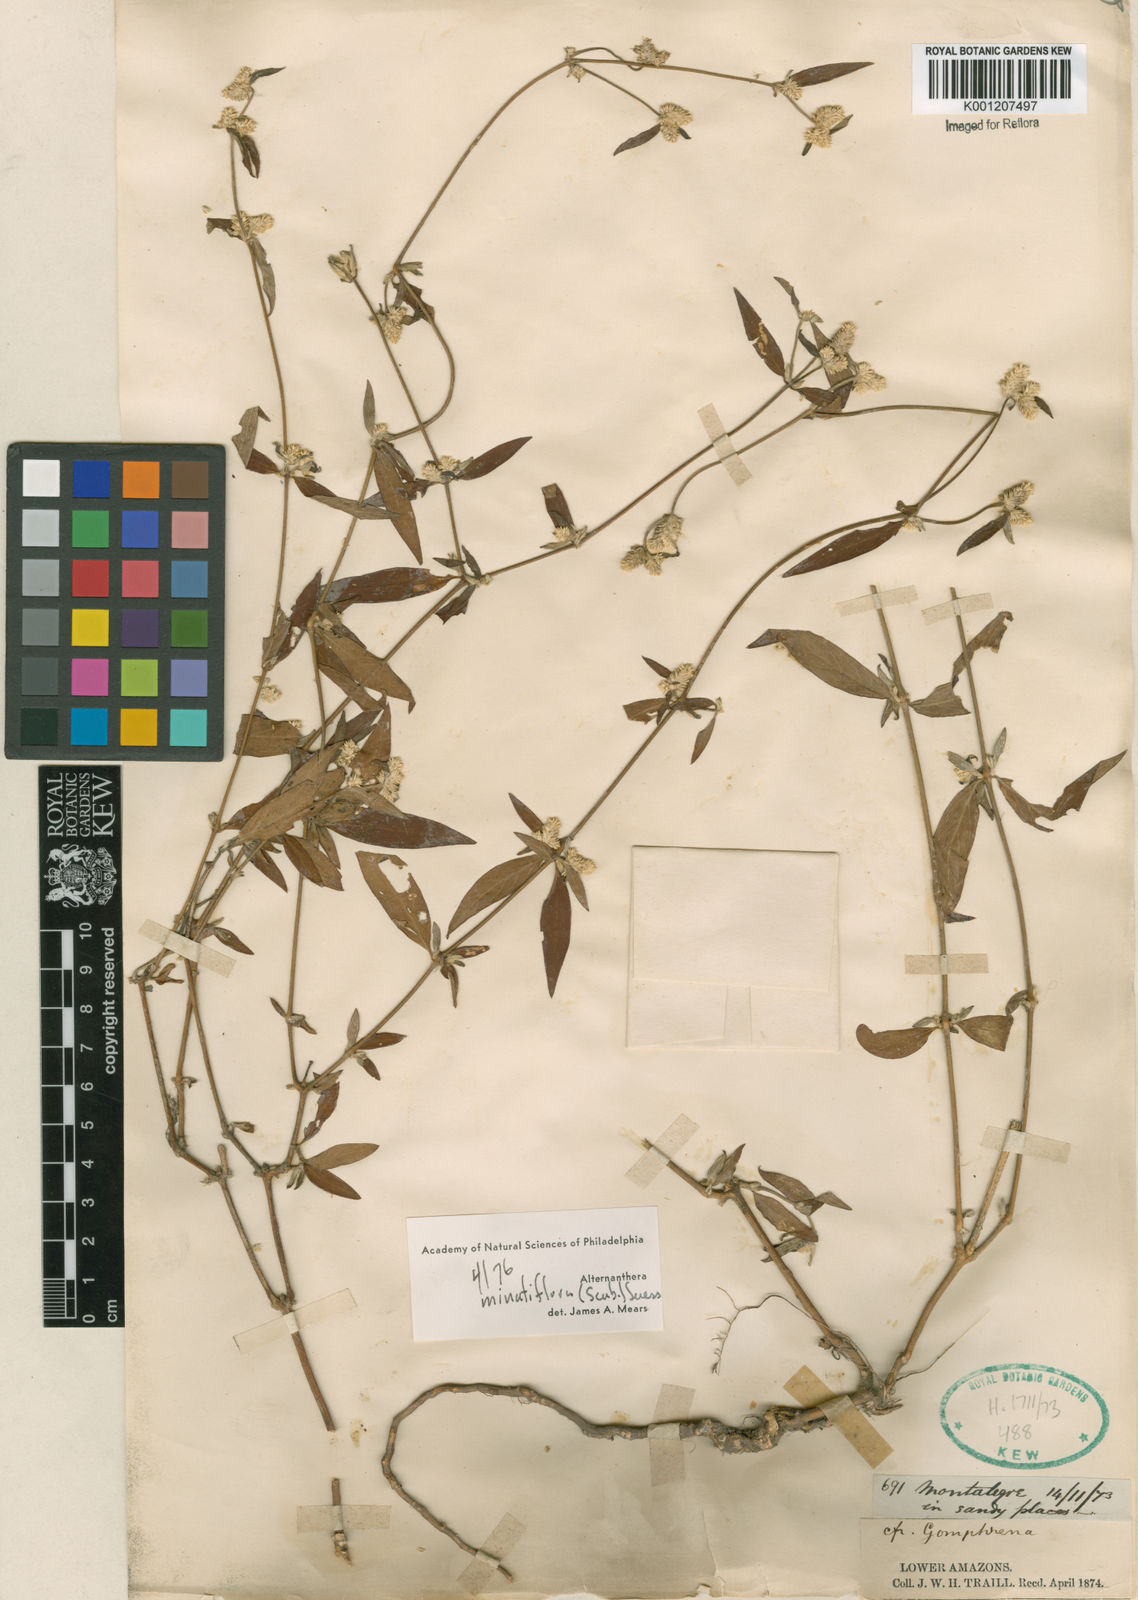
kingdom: Plantae
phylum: Tracheophyta
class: Magnoliopsida
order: Caryophyllales
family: Amaranthaceae
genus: Alternanthera
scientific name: Alternanthera minutiflora
